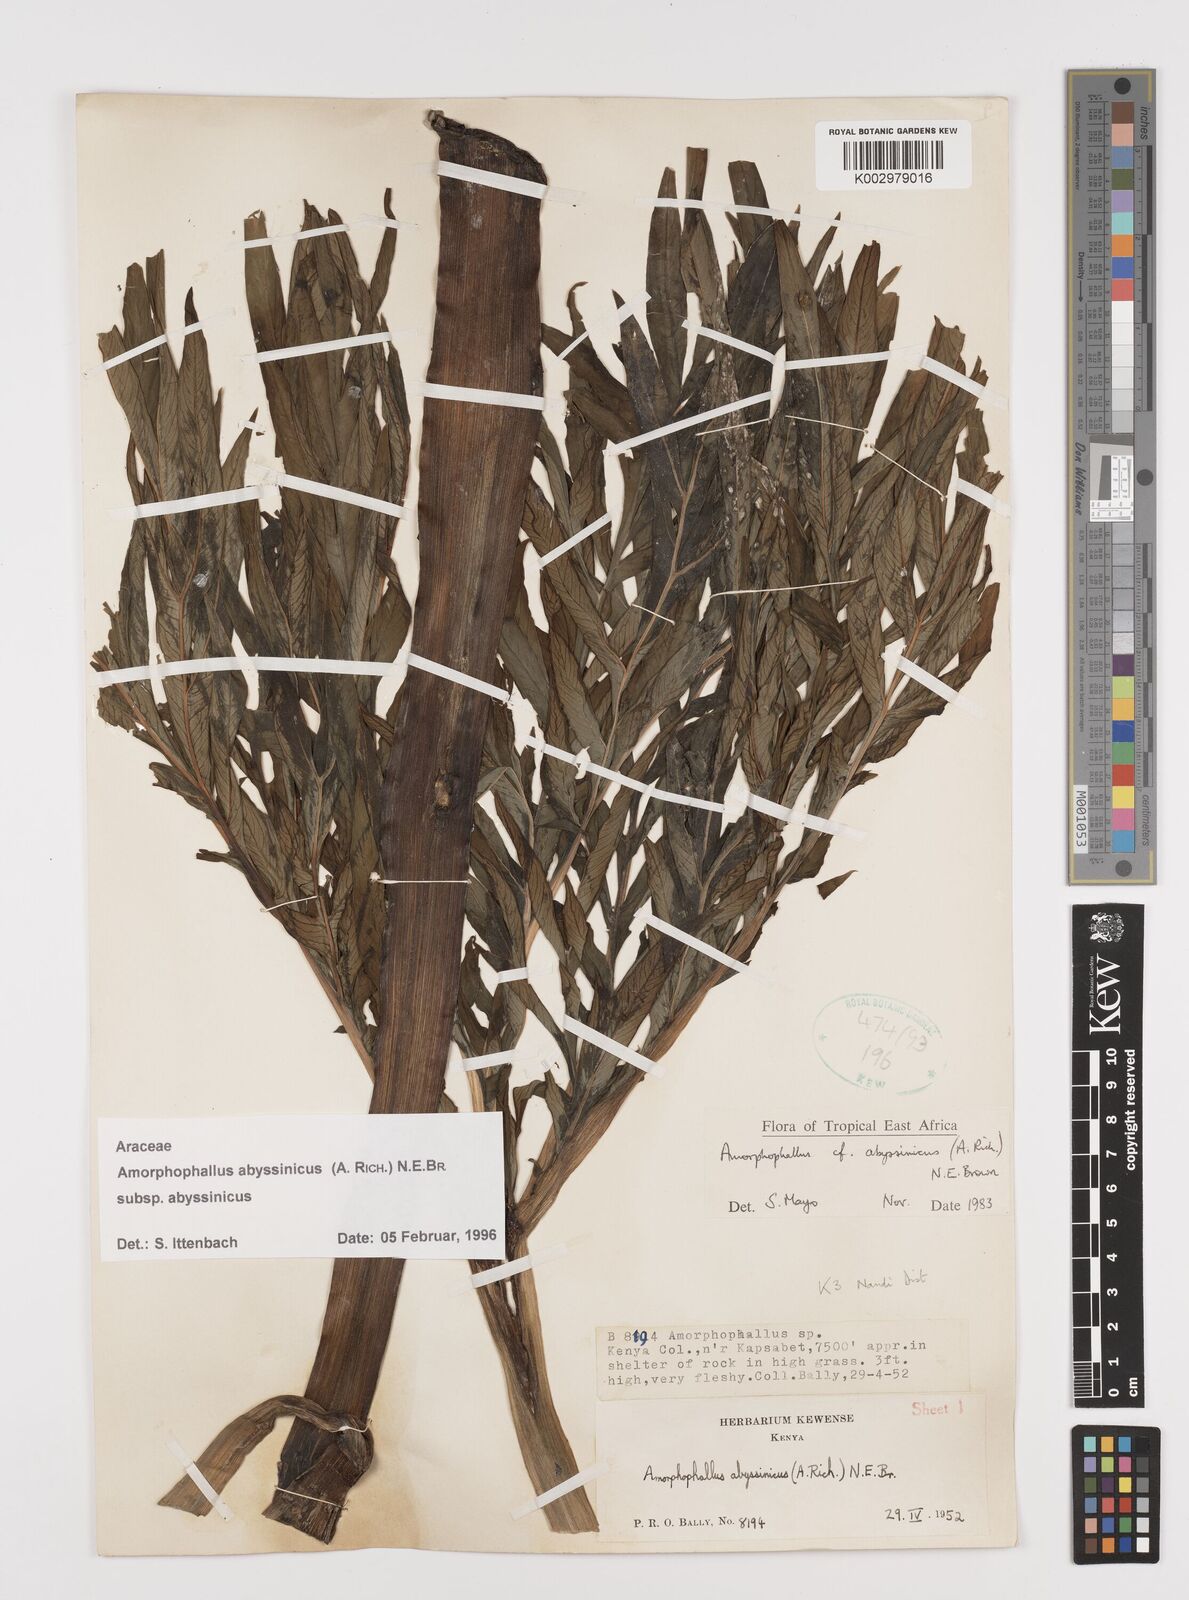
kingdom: Plantae
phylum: Tracheophyta
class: Liliopsida
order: Alismatales
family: Araceae
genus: Amorphophallus
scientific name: Amorphophallus abyssinicus
